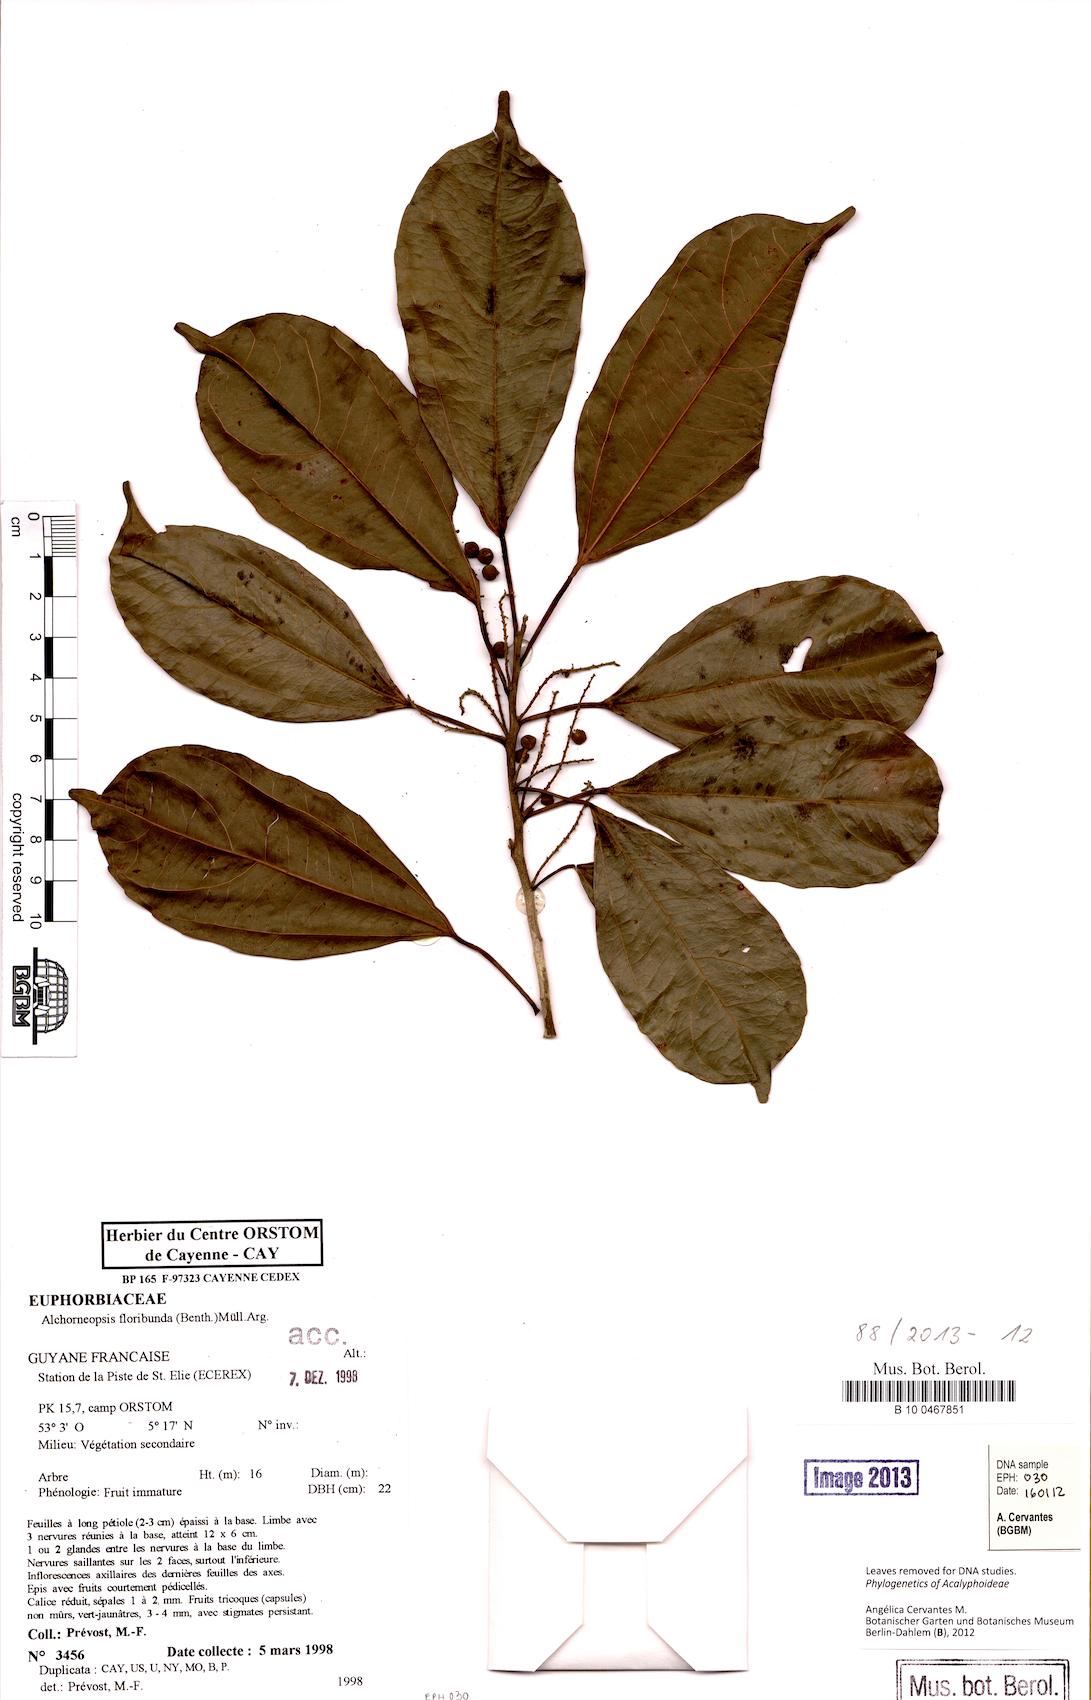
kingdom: Plantae
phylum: Tracheophyta
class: Magnoliopsida
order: Malpighiales
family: Euphorbiaceae
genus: Alchorneopsis
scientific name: Alchorneopsis floribunda
